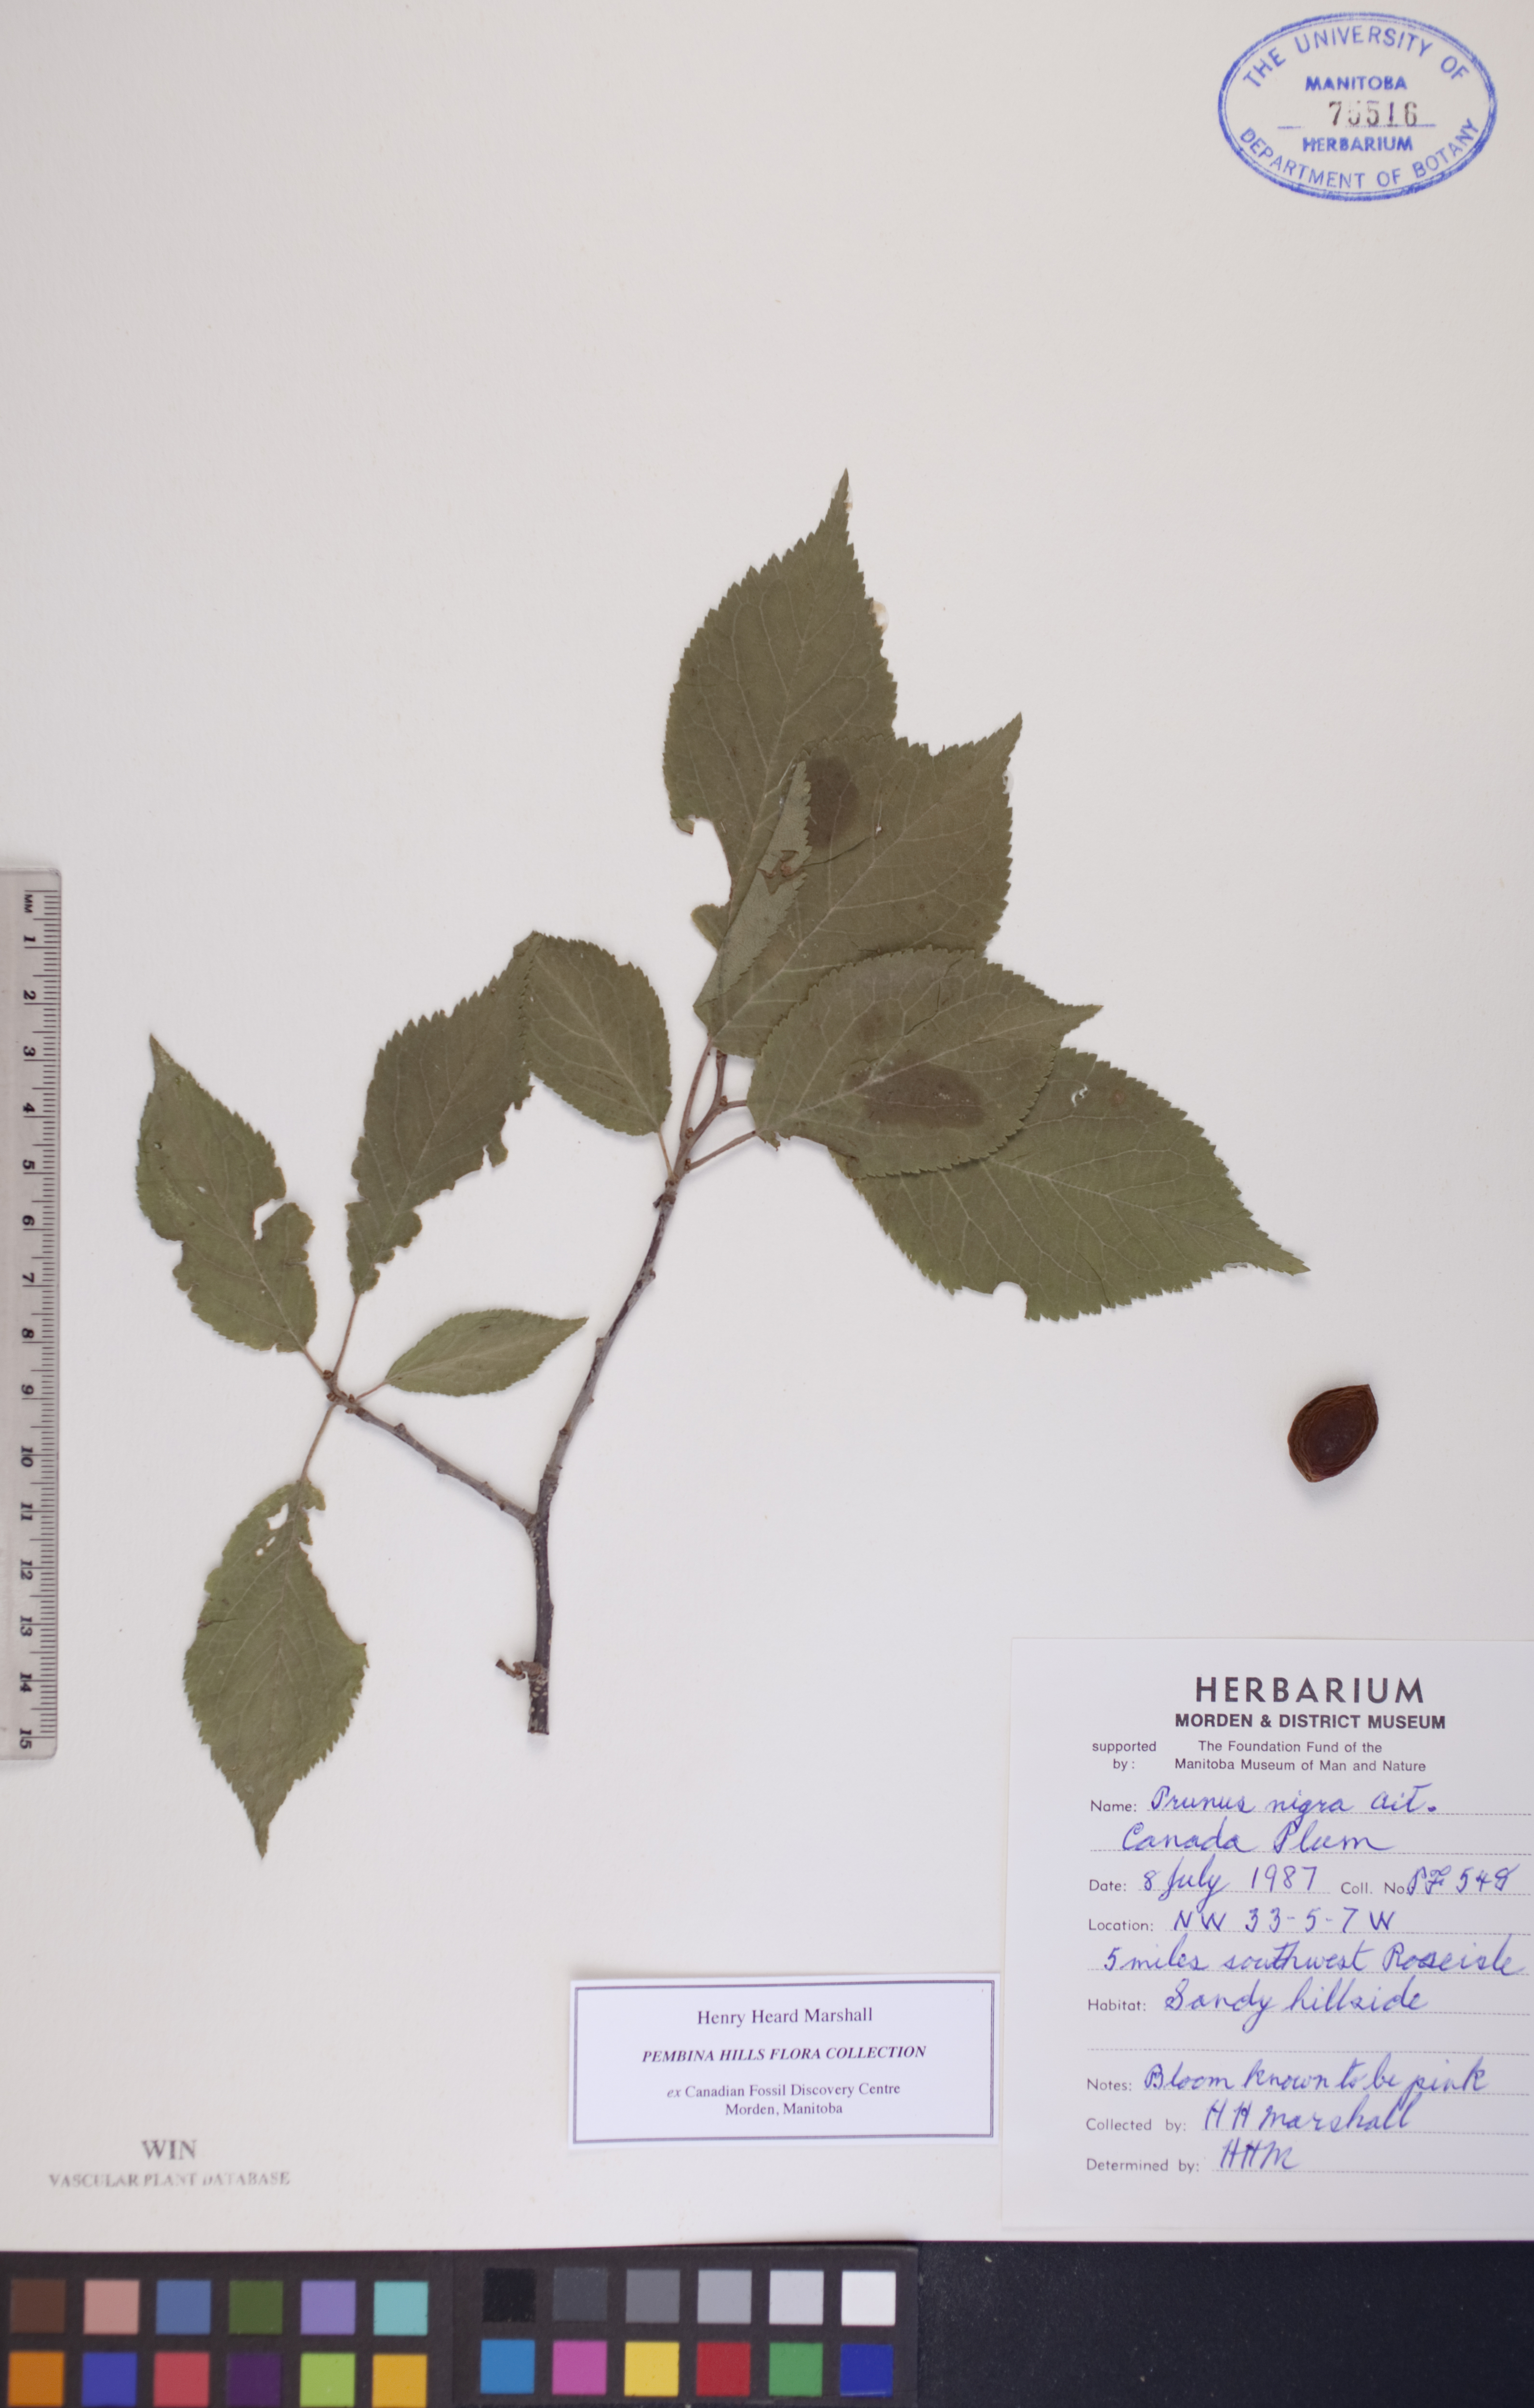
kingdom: Plantae
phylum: Tracheophyta
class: Magnoliopsida
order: Rosales
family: Rosaceae
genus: Prunus
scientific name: Prunus nigra
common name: Black plum
